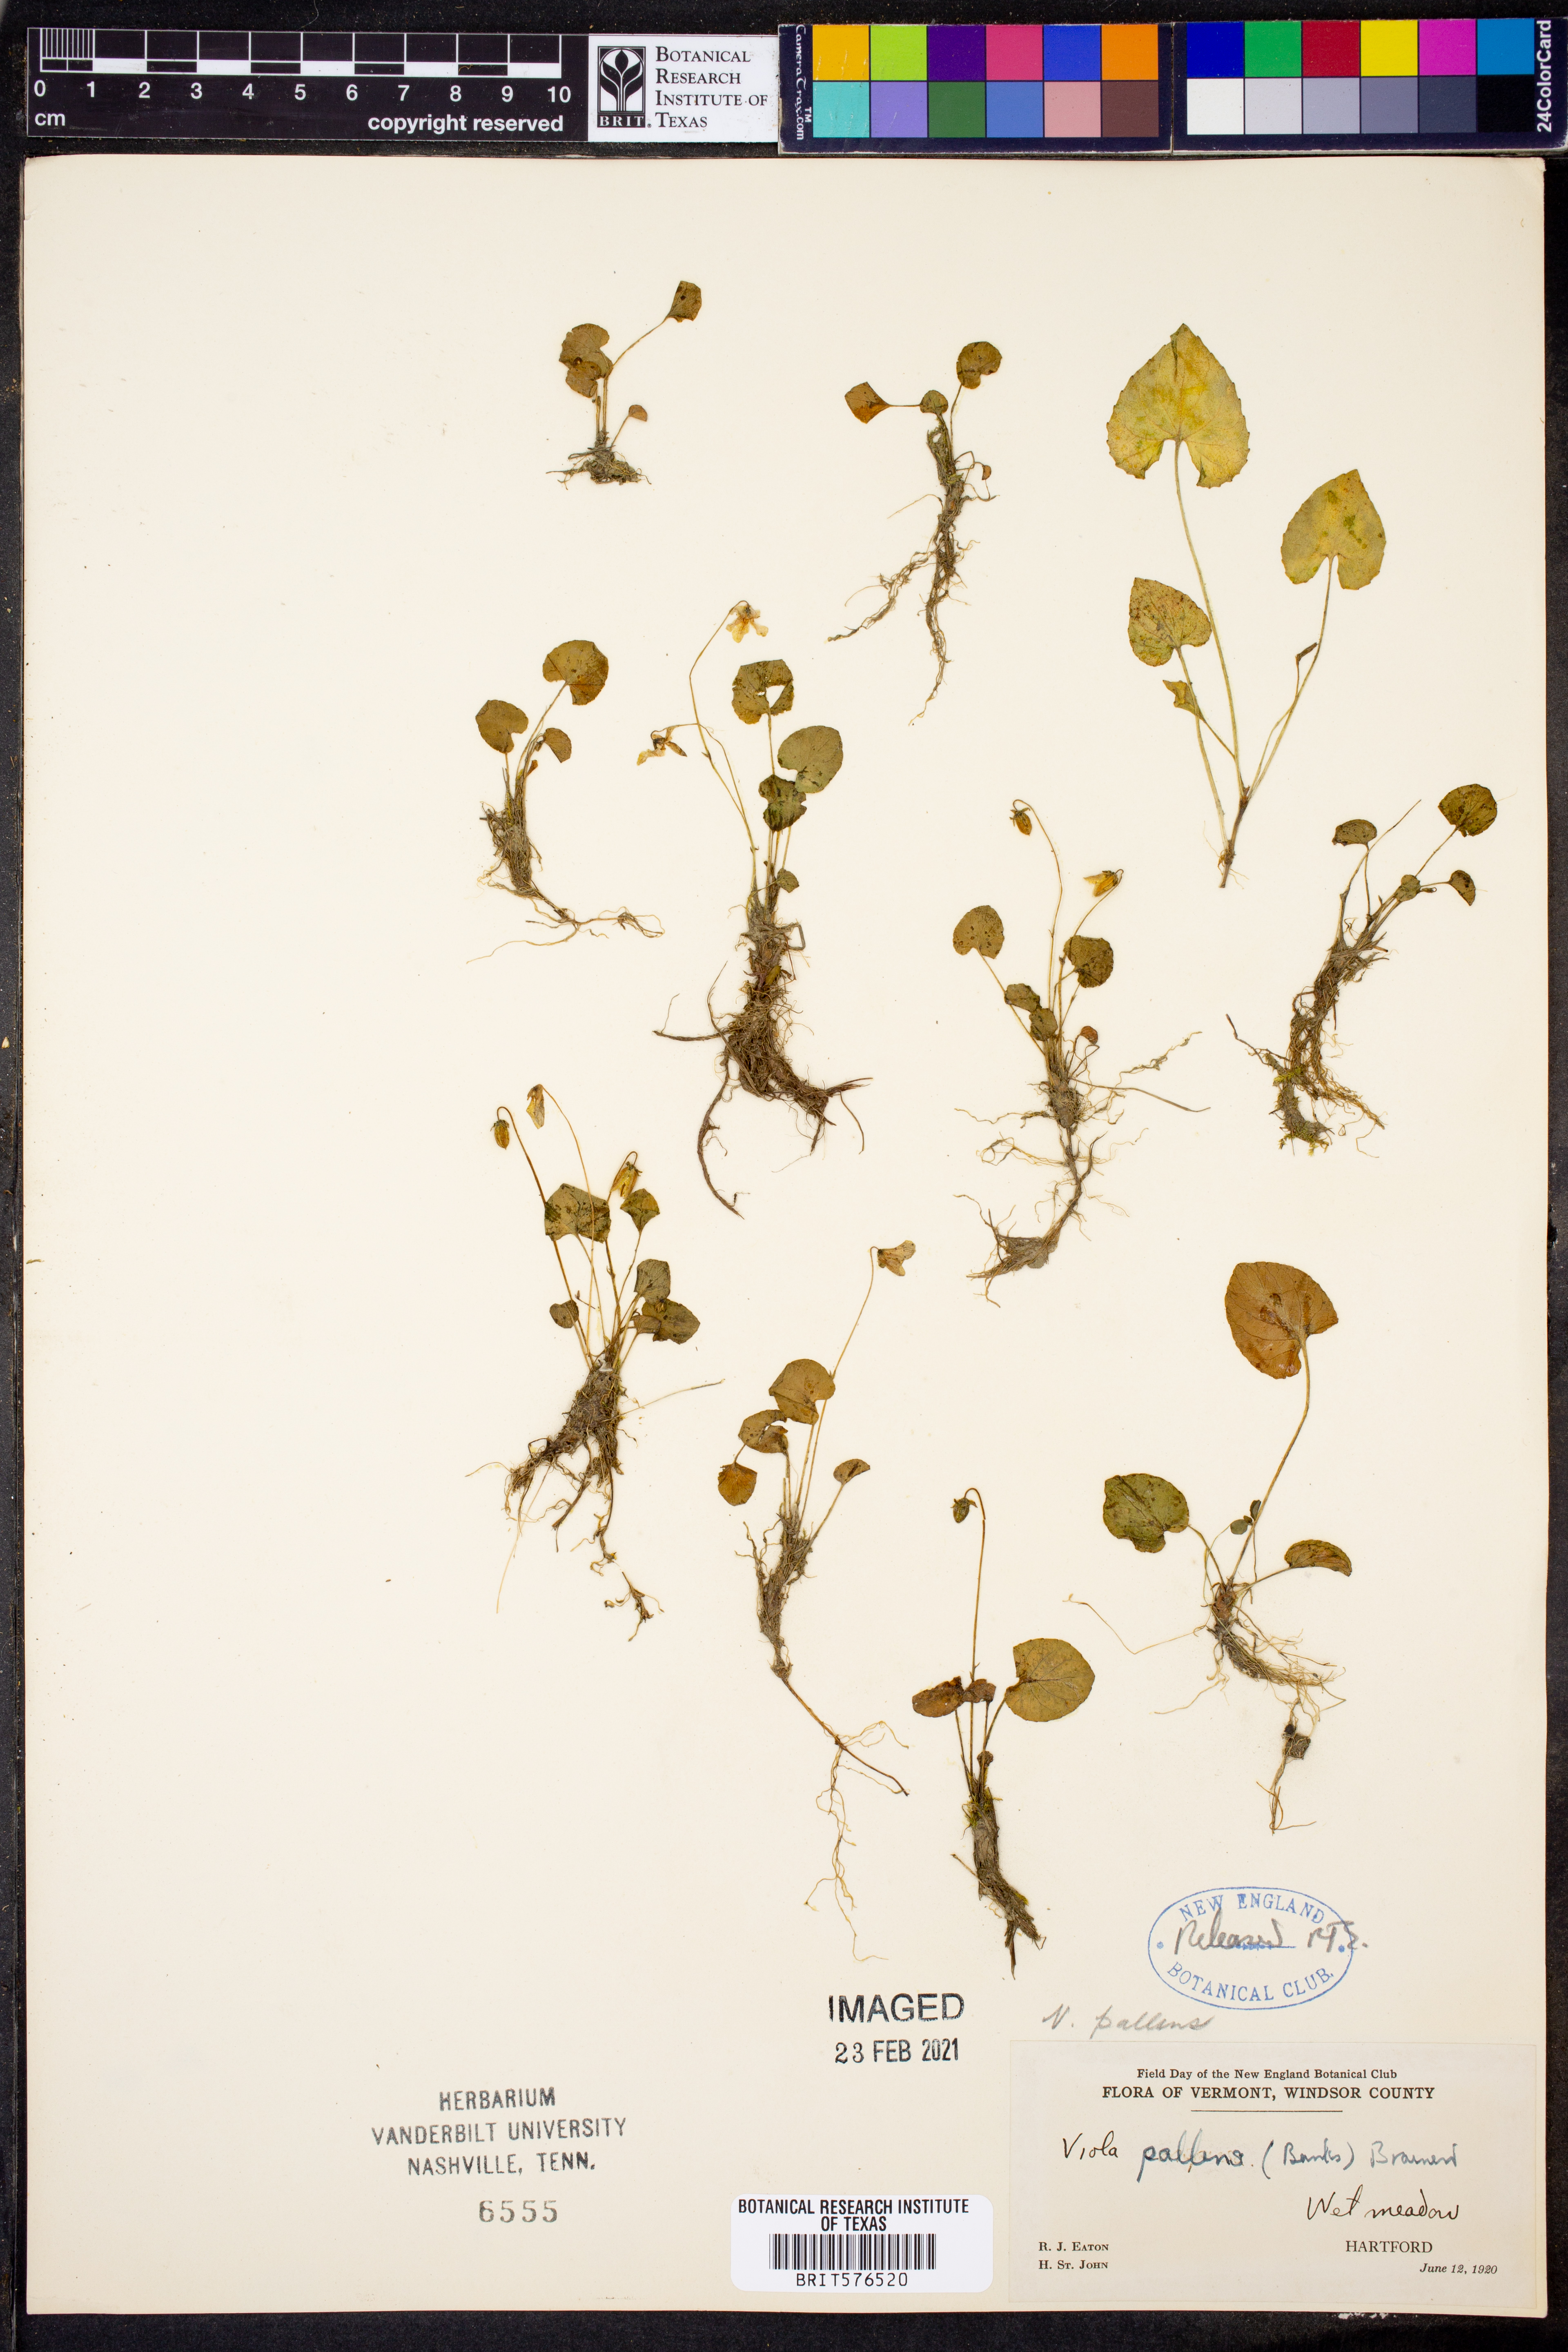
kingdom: Plantae
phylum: Tracheophyta
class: Magnoliopsida
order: Malpighiales
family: Violaceae
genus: Viola
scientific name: Viola palustris
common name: Marsh violet
